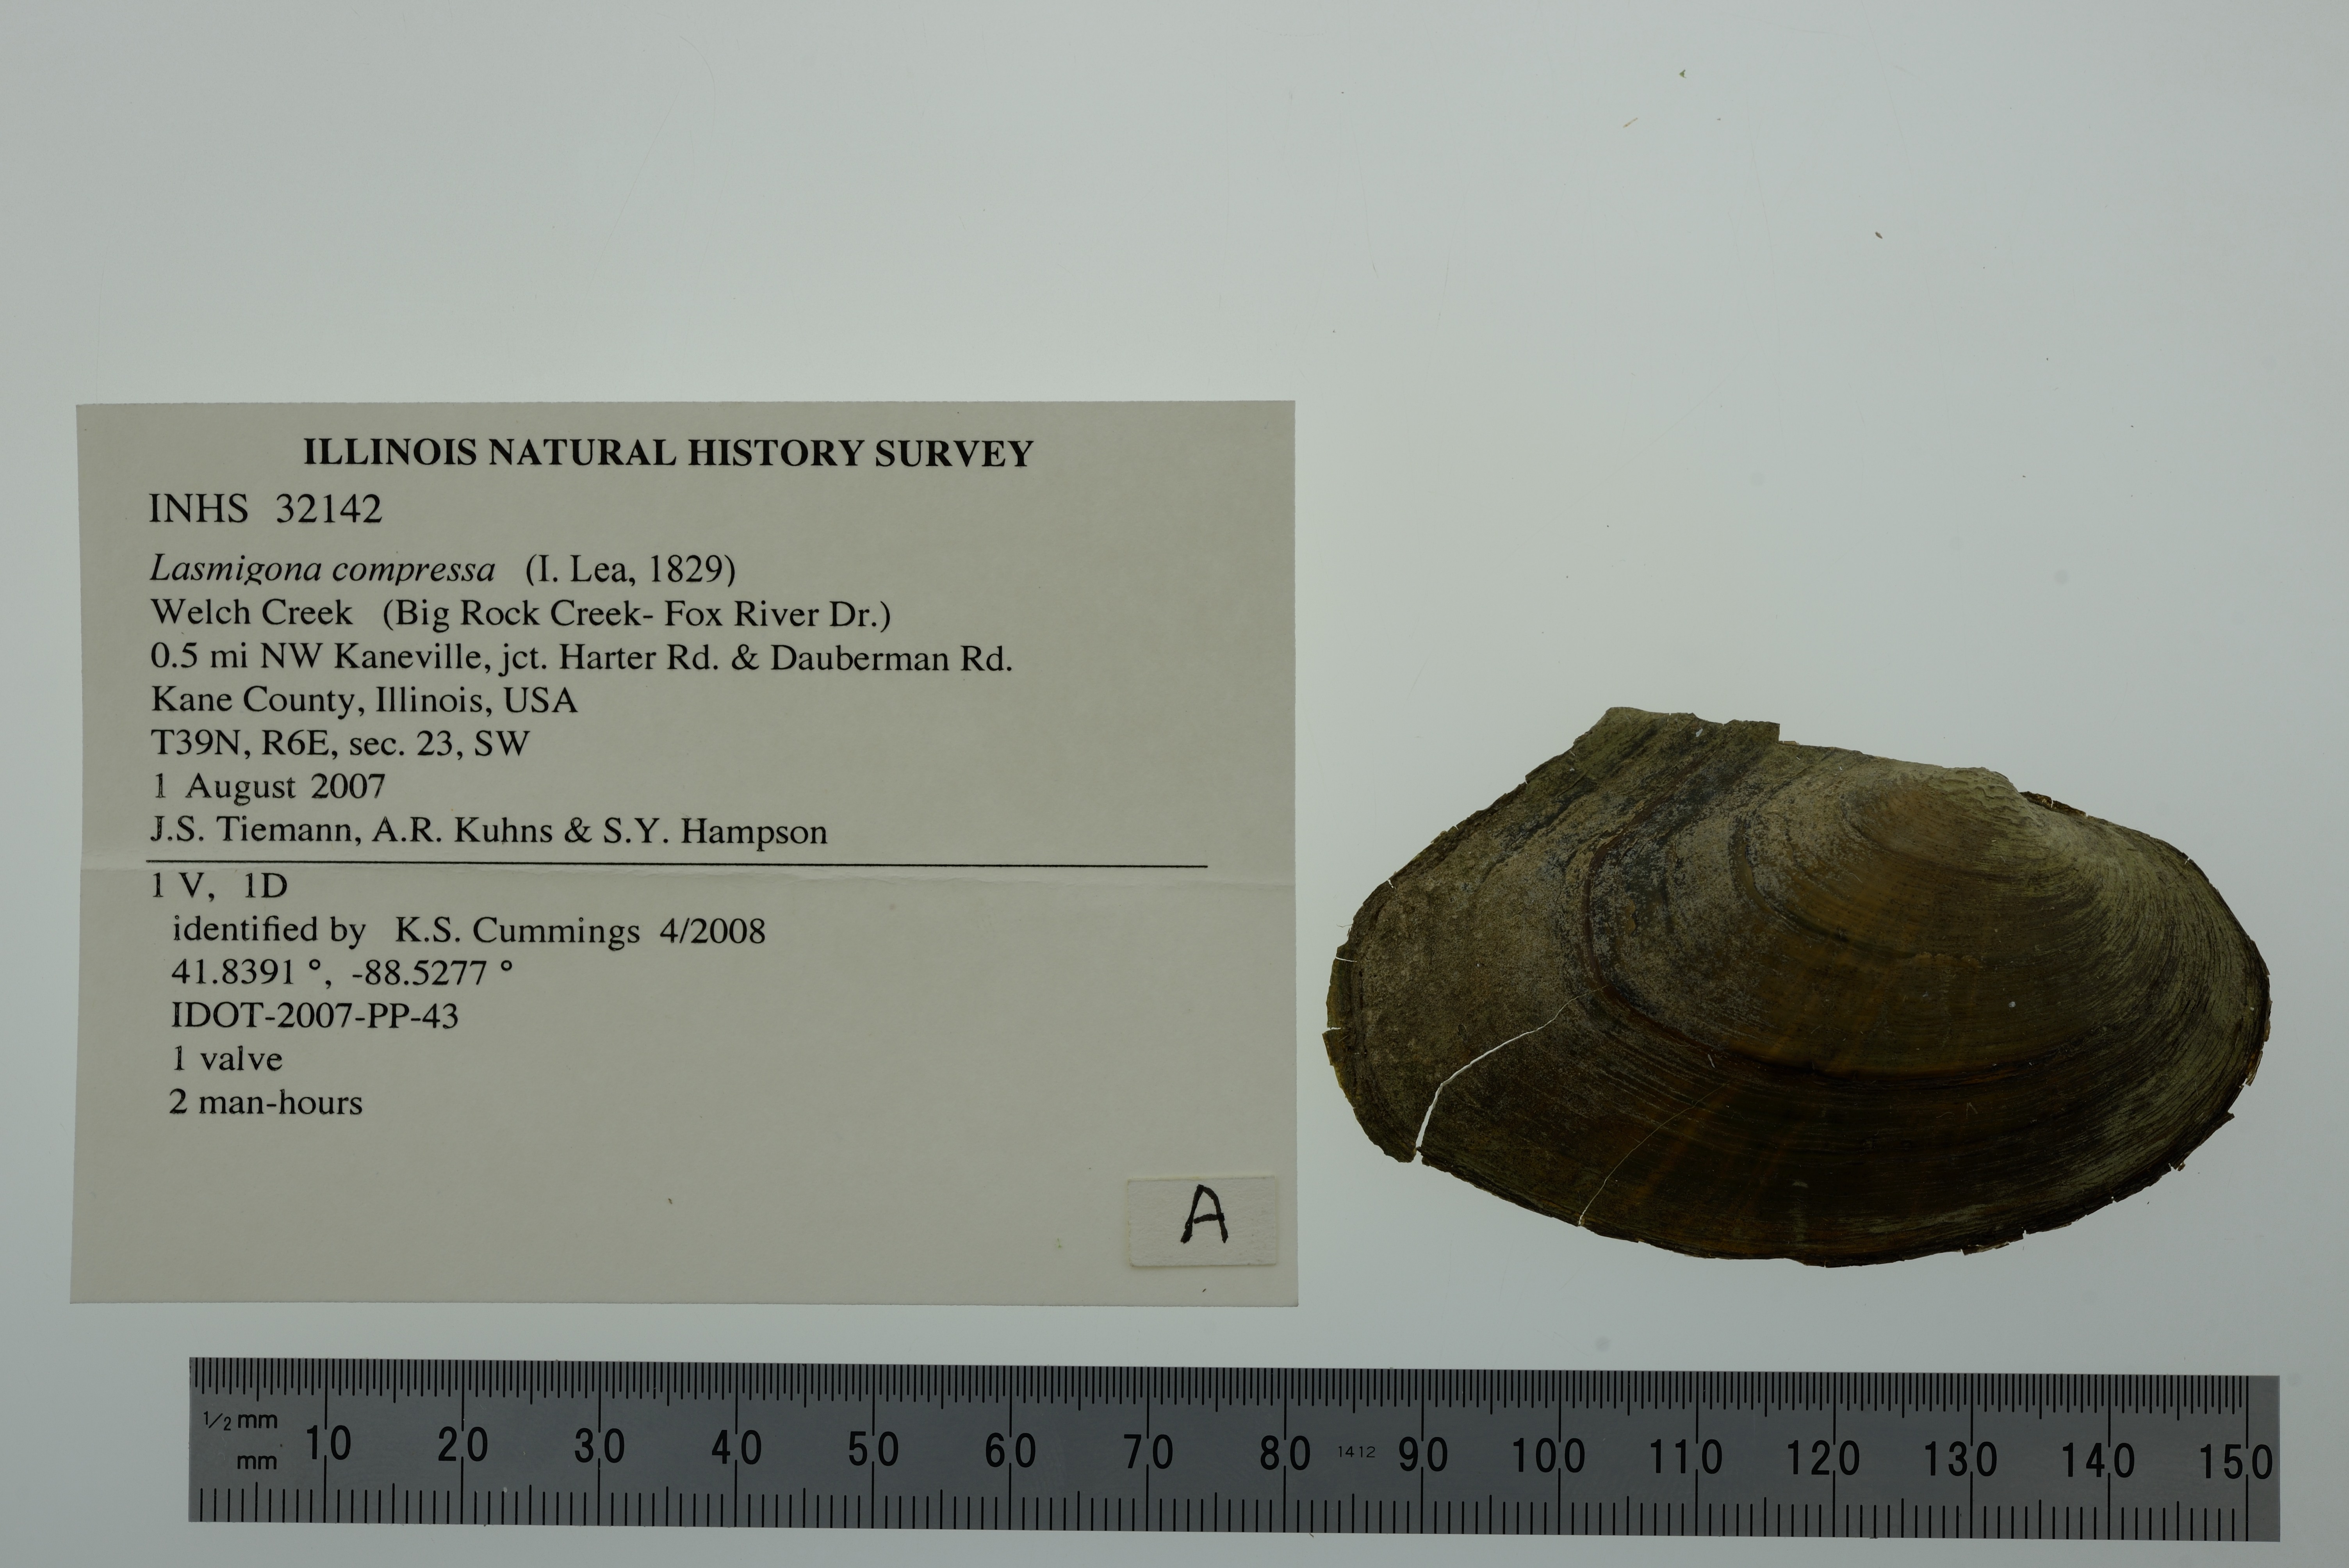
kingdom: Animalia
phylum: Mollusca
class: Bivalvia
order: Unionida
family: Unionidae
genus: Lasmigona
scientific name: Lasmigona compressa
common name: Creek heelsplitter
